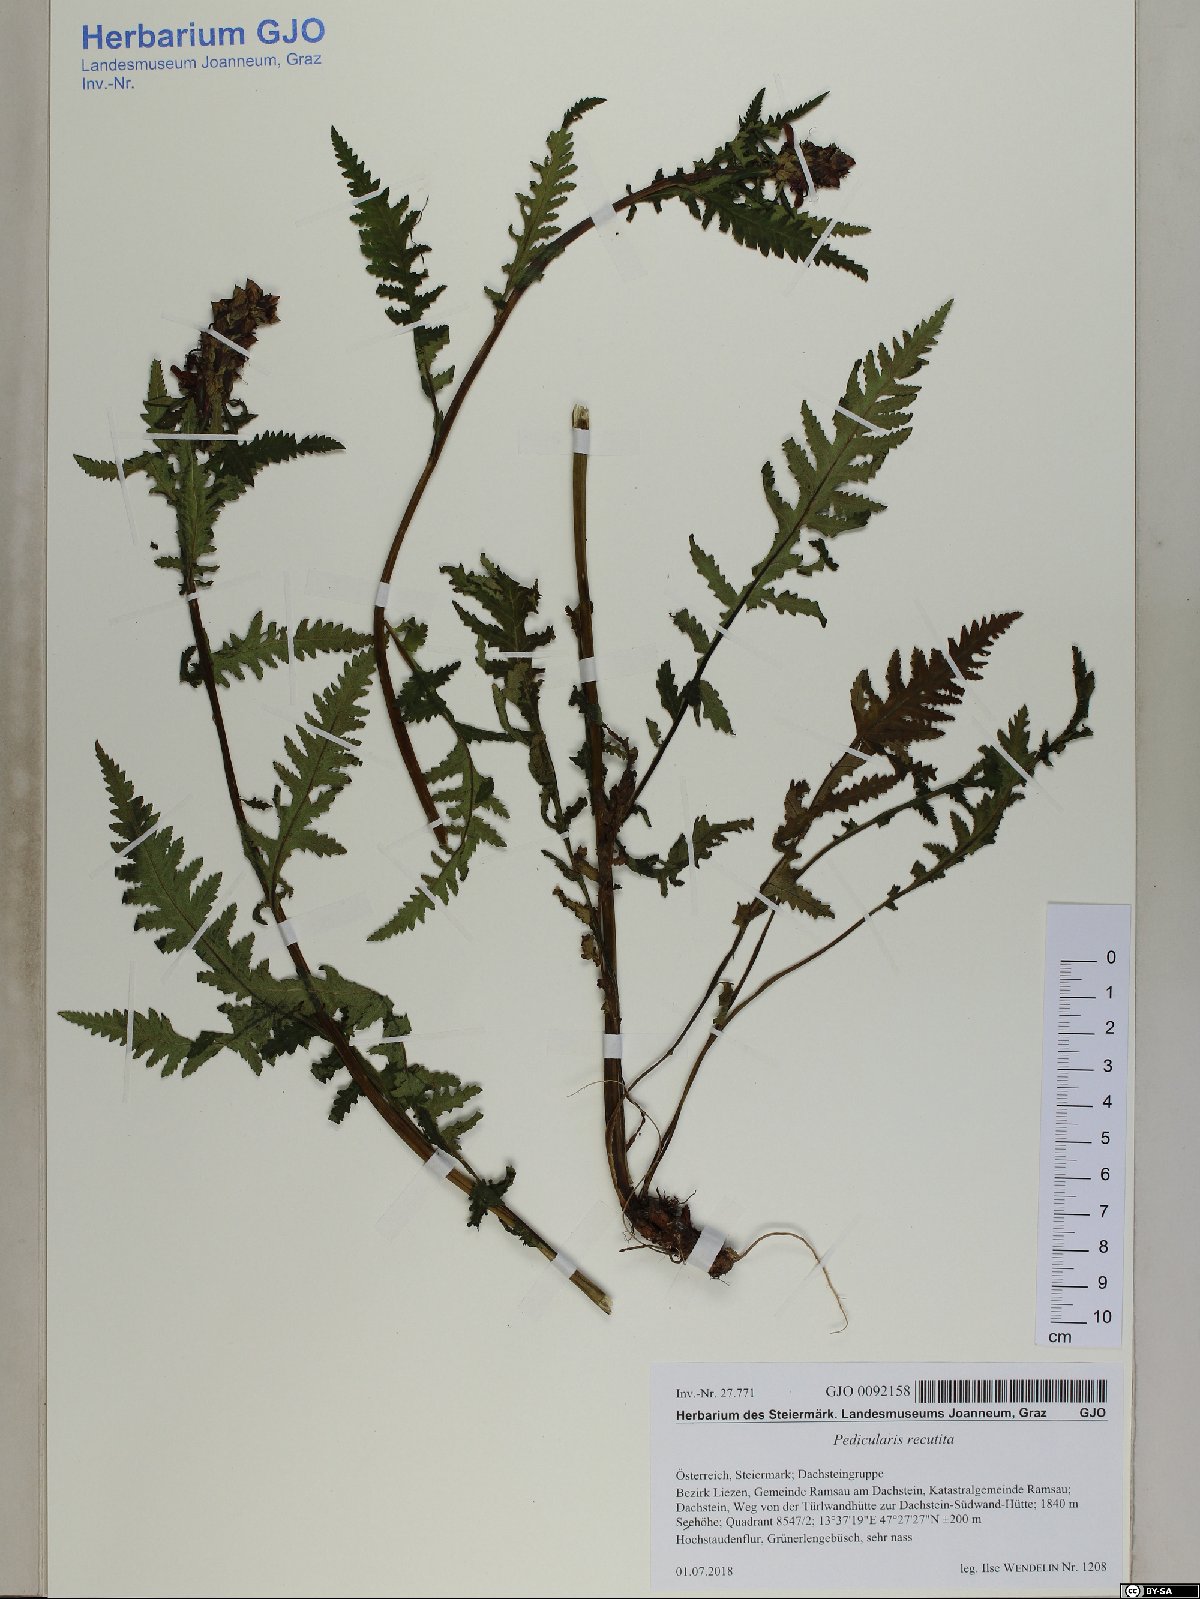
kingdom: Plantae
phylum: Tracheophyta
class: Magnoliopsida
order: Lamiales
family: Orobanchaceae
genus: Pedicularis
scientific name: Pedicularis recutita
